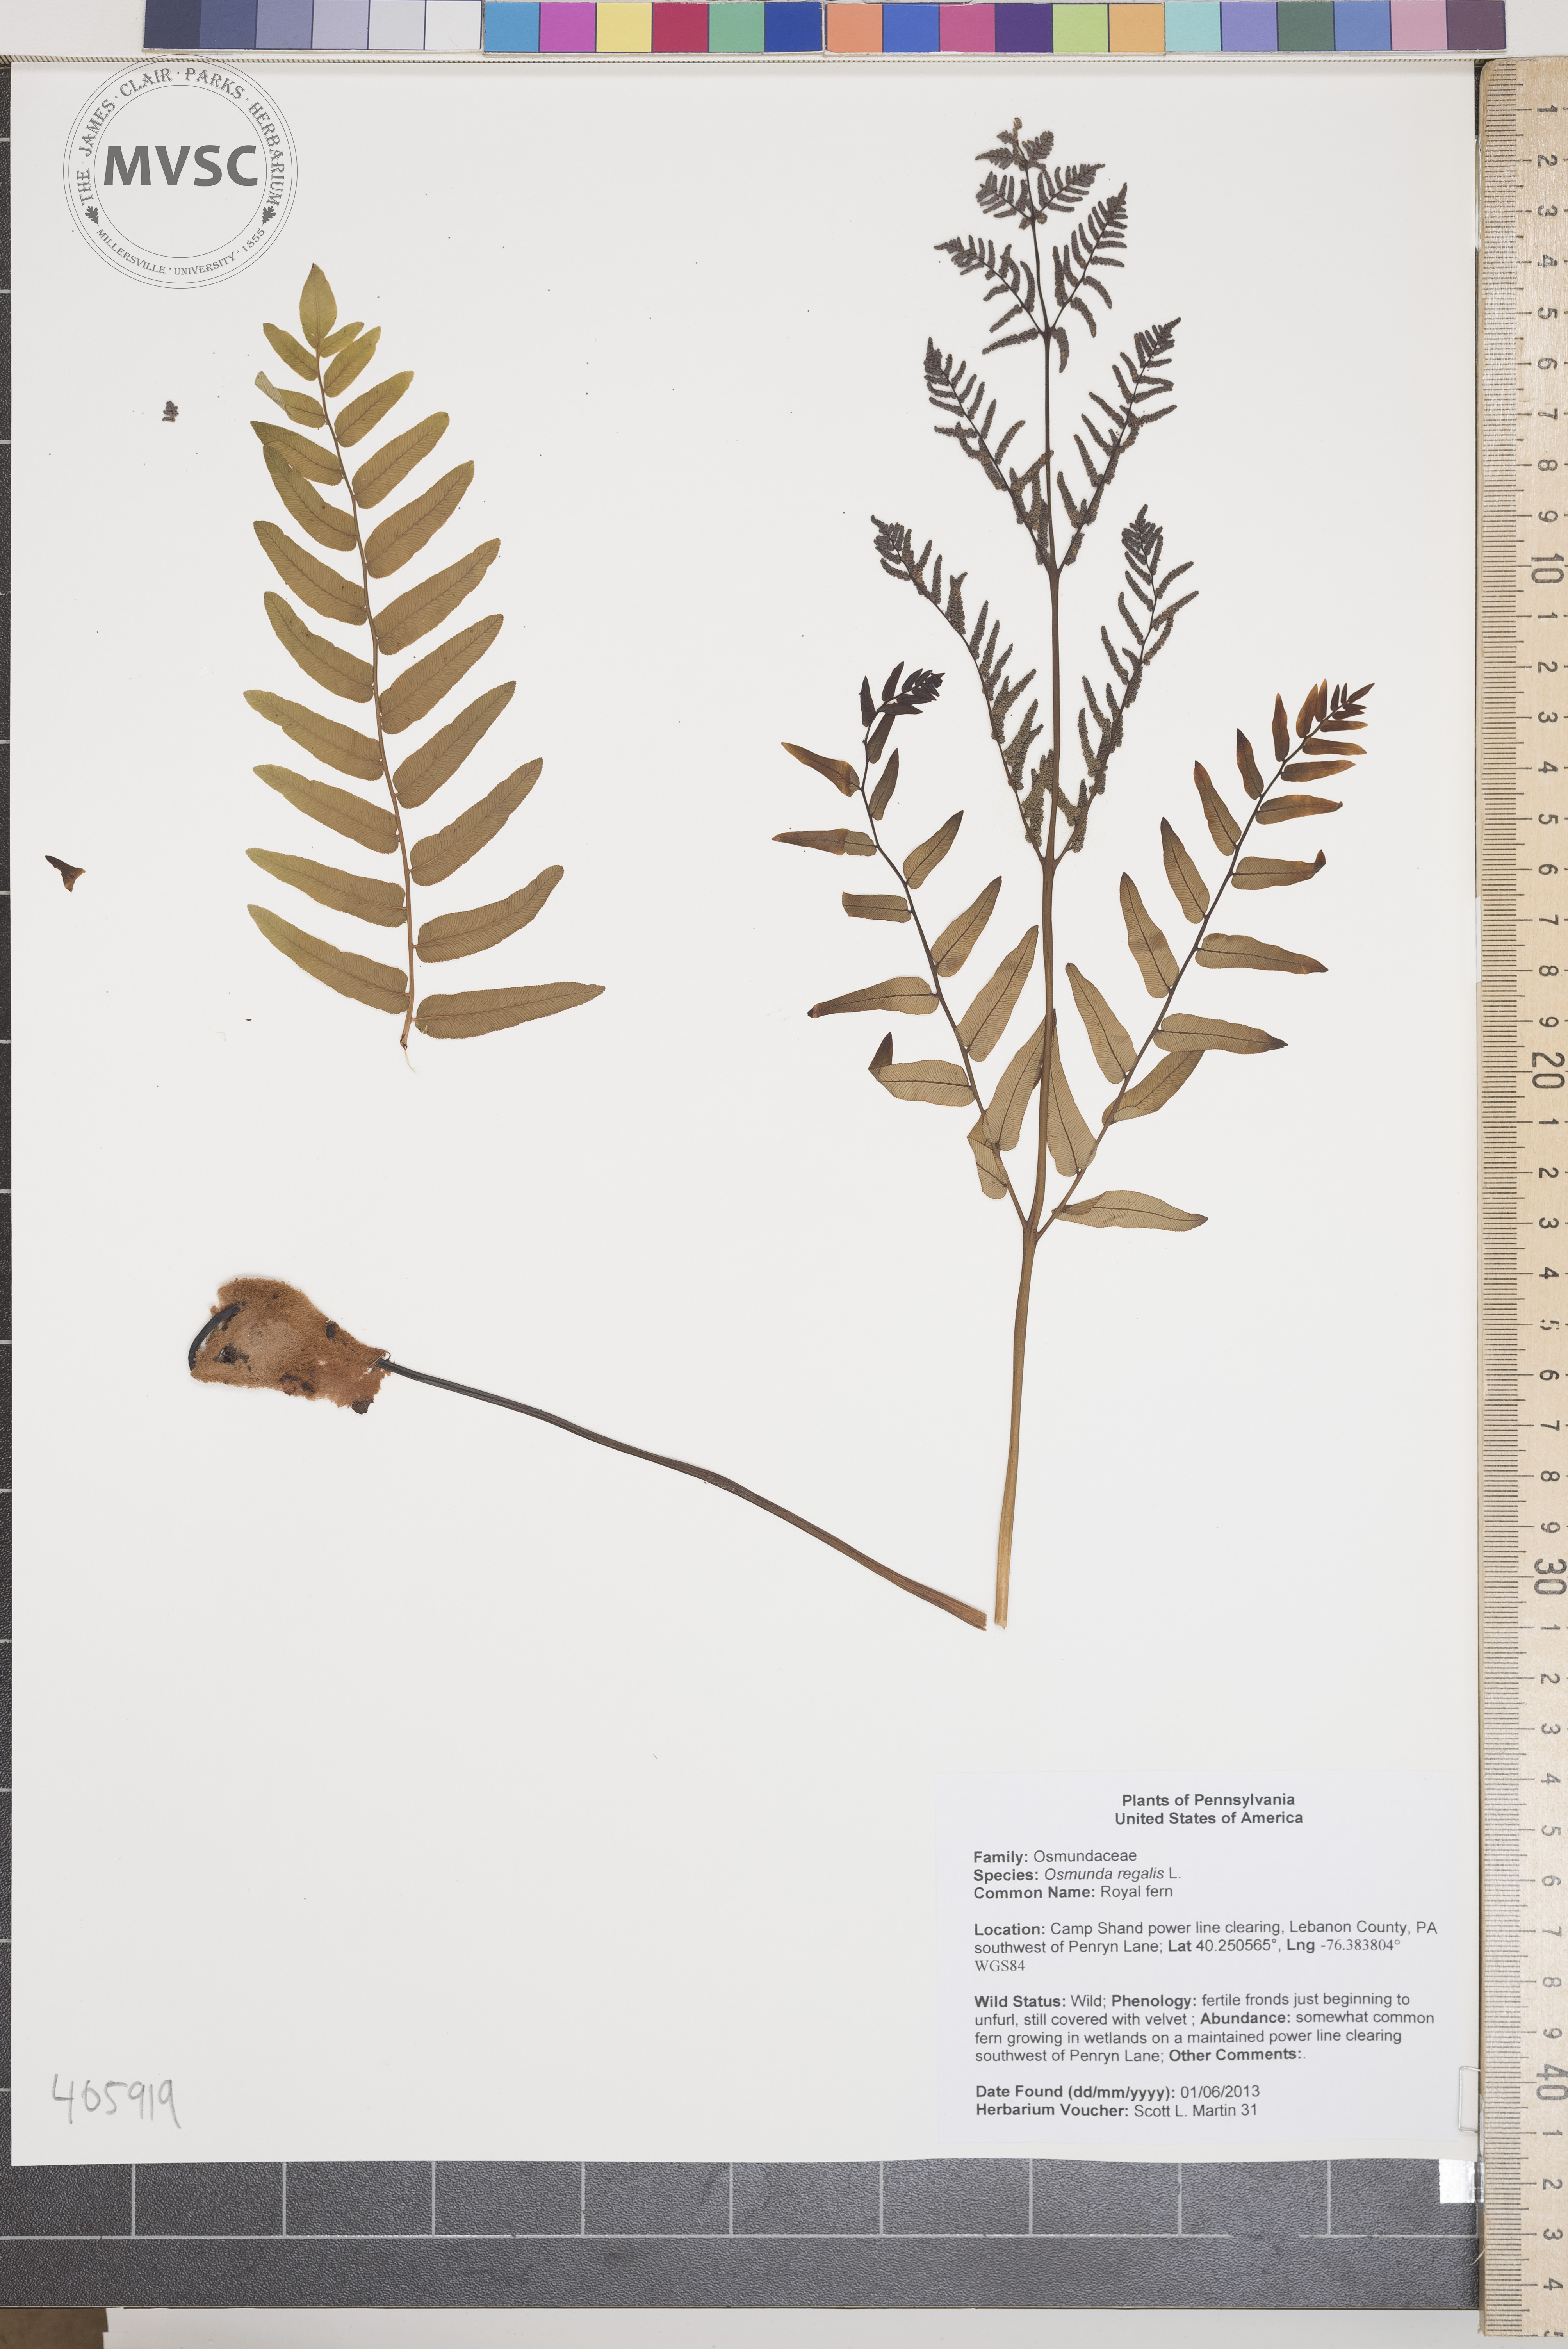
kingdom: Plantae
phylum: Tracheophyta
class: Polypodiopsida
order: Osmundales
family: Osmundaceae
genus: Osmunda
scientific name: Osmunda regalis
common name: Royal fern
